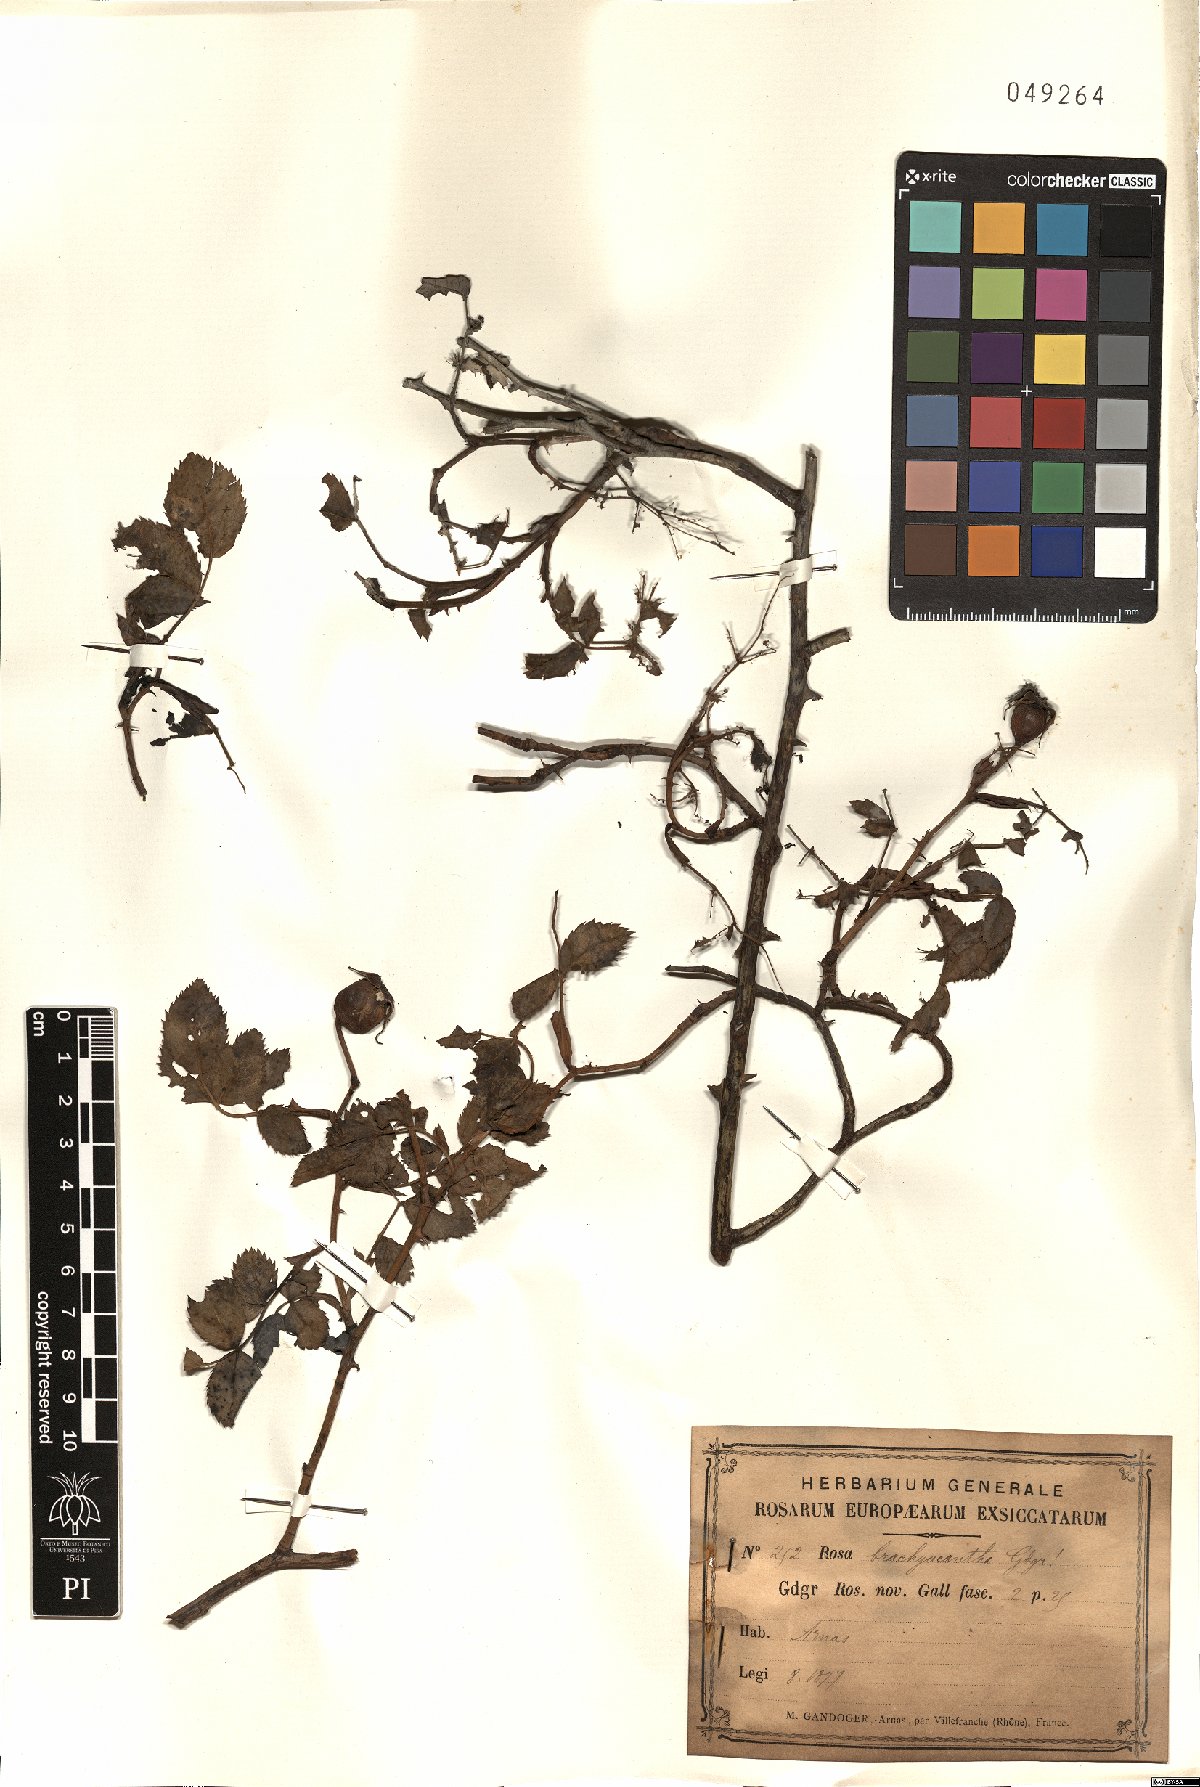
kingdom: Plantae
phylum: Tracheophyta
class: Magnoliopsida
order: Rosales
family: Rosaceae
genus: Rosa
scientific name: Rosa brachyacantha
